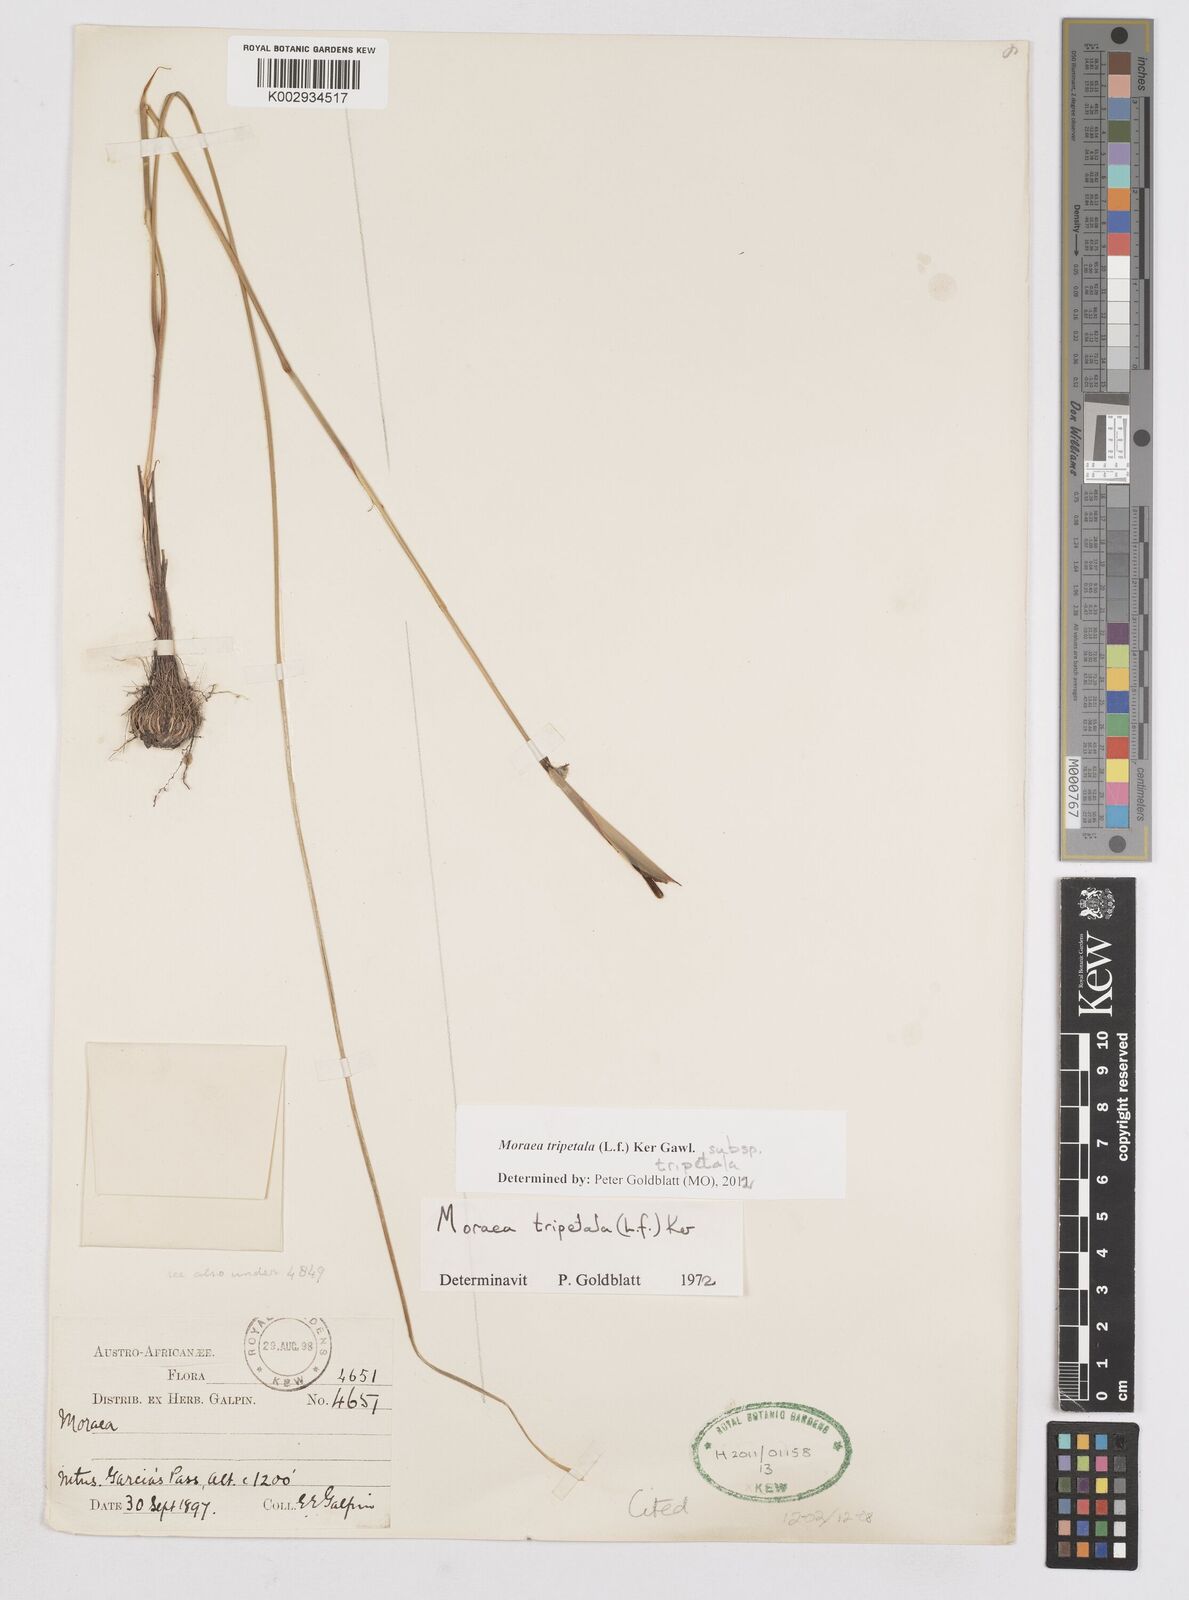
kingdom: Plantae
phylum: Tracheophyta
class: Liliopsida
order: Asparagales
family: Iridaceae
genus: Moraea
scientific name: Moraea tripetala
